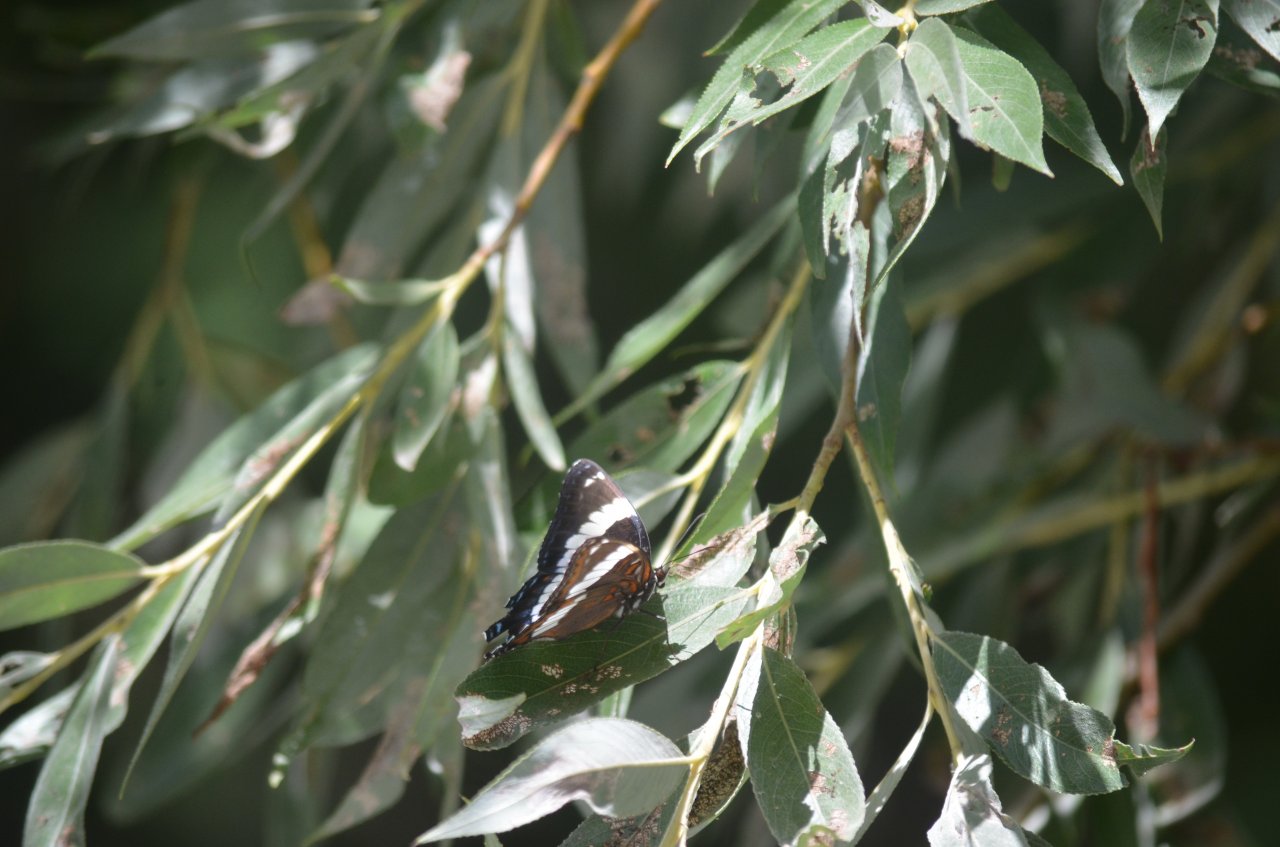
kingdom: Animalia
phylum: Arthropoda
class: Insecta
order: Lepidoptera
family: Nymphalidae
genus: Limenitis
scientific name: Limenitis arthemis
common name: Red-spotted Admiral
